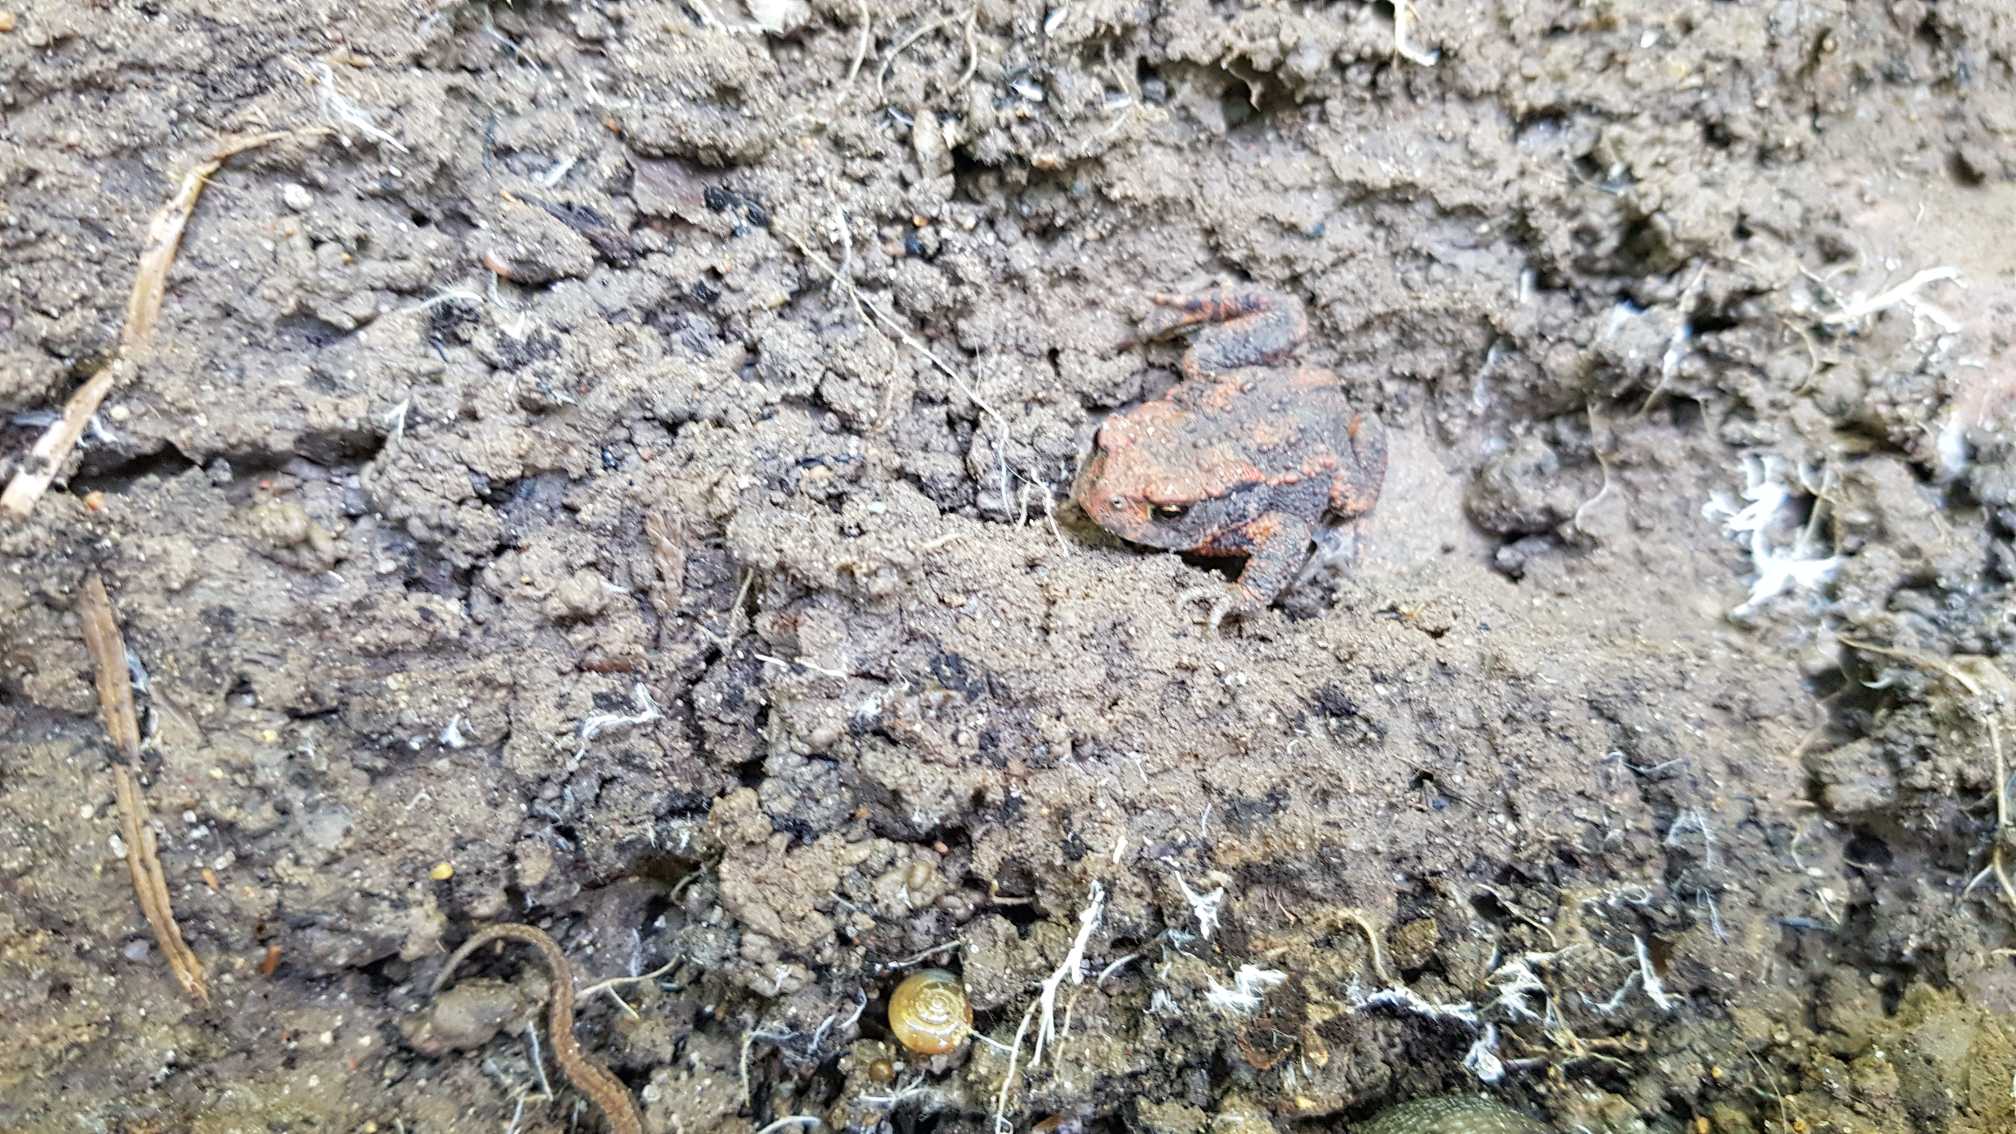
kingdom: Animalia
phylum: Chordata
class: Amphibia
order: Anura
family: Bufonidae
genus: Bufo
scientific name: Bufo bufo
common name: Skrubtudse
